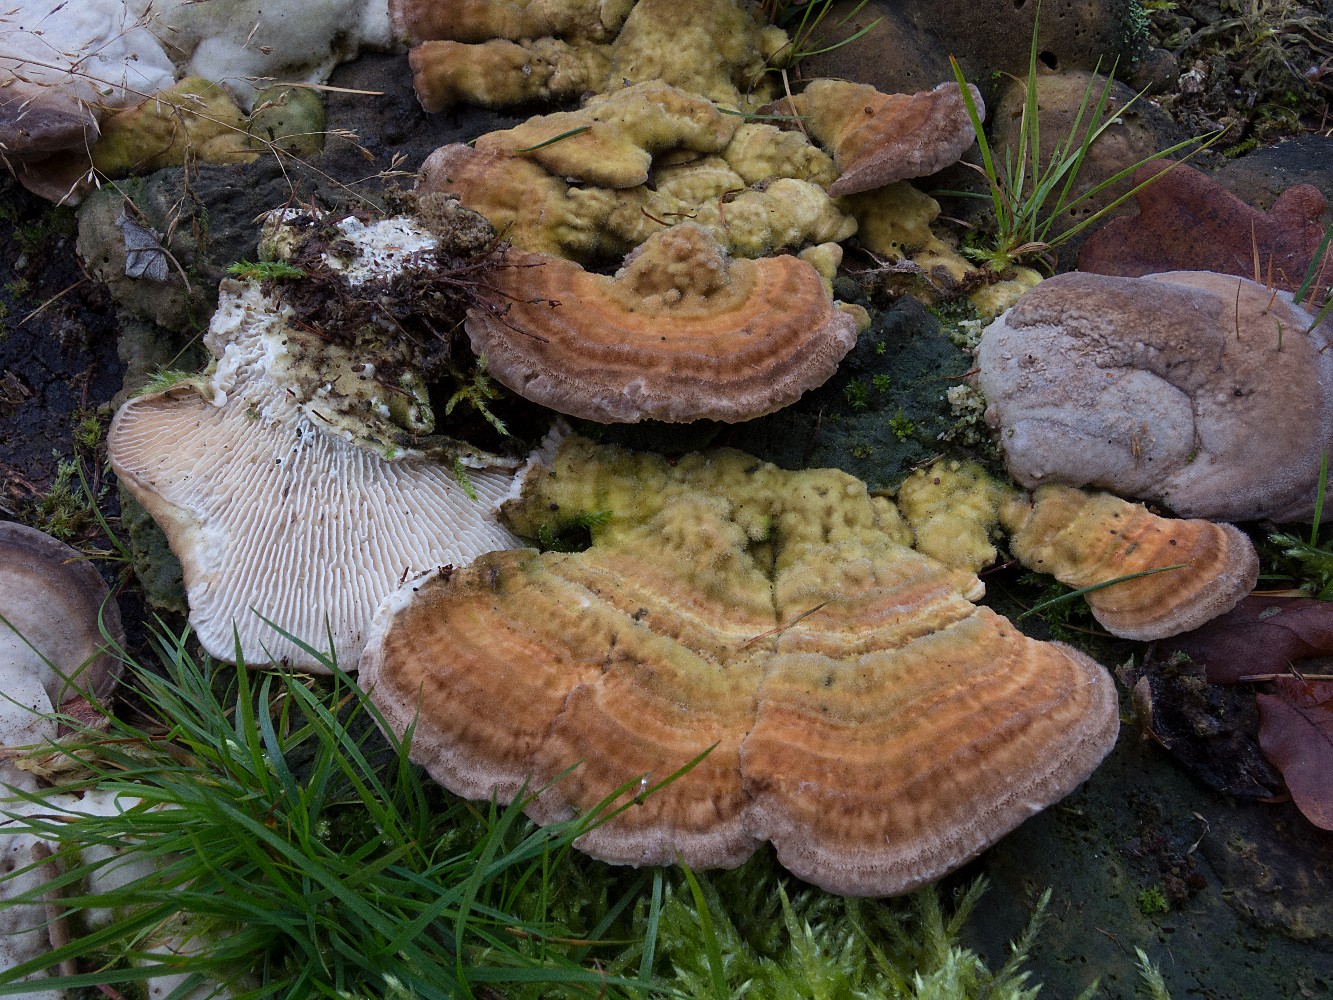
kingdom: Fungi
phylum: Basidiomycota
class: Agaricomycetes
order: Polyporales
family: Polyporaceae
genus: Lenzites
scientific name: Lenzites betulinus
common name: birke-læderporesvamp
